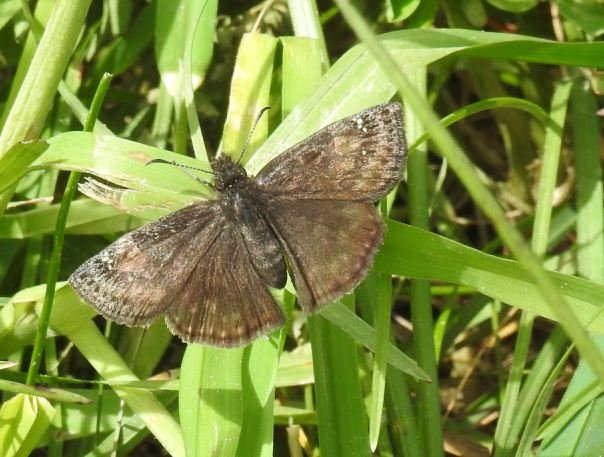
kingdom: Animalia
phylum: Arthropoda
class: Insecta
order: Lepidoptera
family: Hesperiidae
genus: Gesta
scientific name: Gesta
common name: Wild Indigo Duskywing
